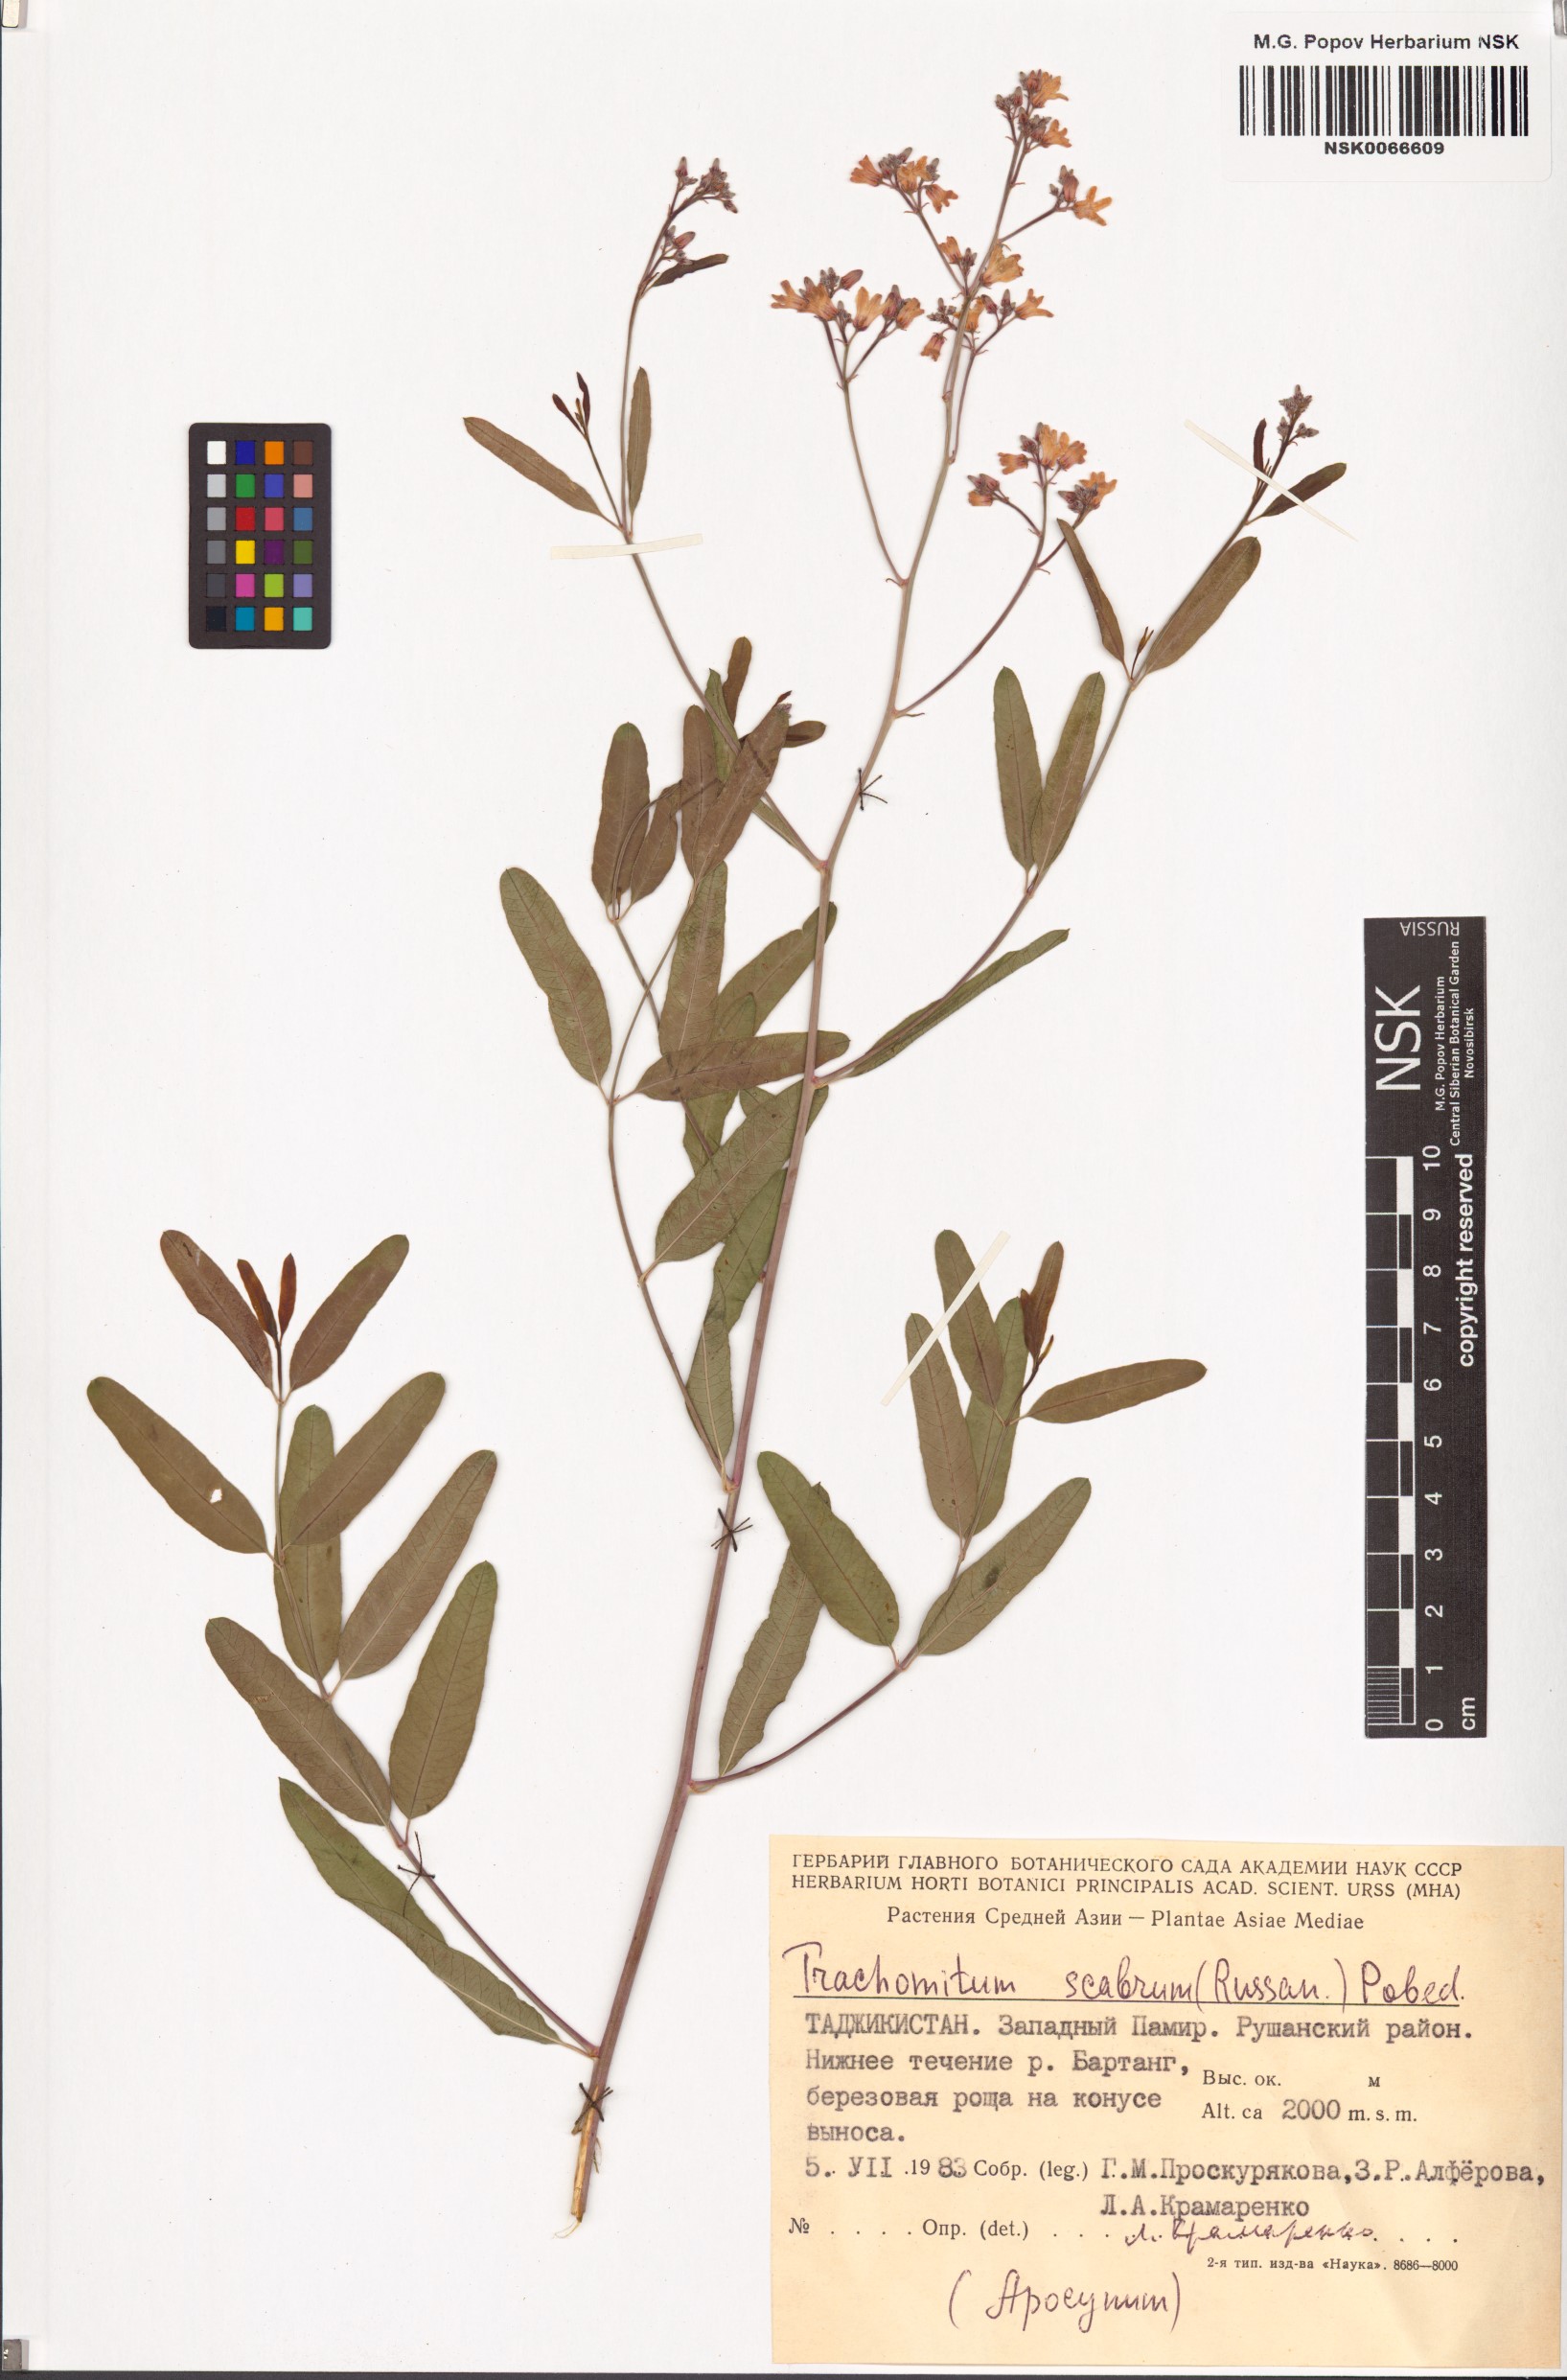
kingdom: Plantae
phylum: Tracheophyta
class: Magnoliopsida
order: Gentianales
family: Apocynaceae
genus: Poacynum
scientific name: Poacynum scabrum
